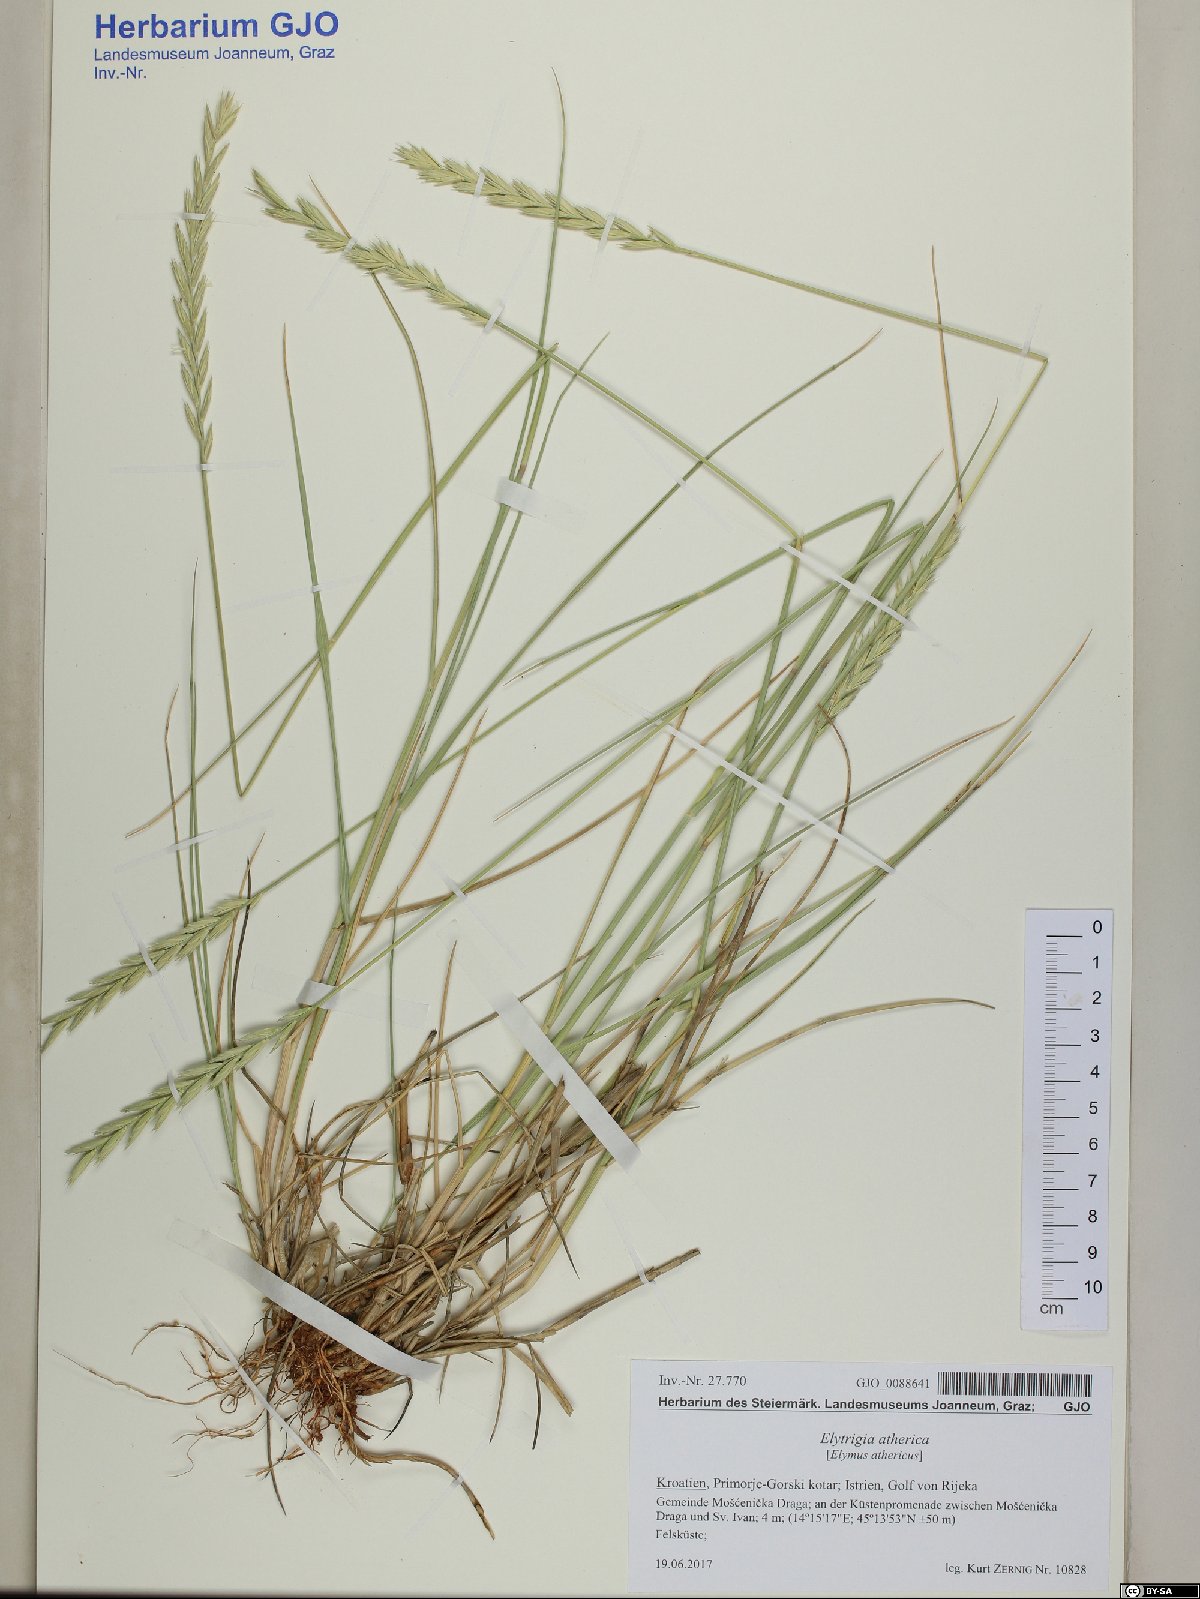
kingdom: Plantae
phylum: Tracheophyta
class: Liliopsida
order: Poales
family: Poaceae
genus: Elymus
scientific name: Elymus athericus
